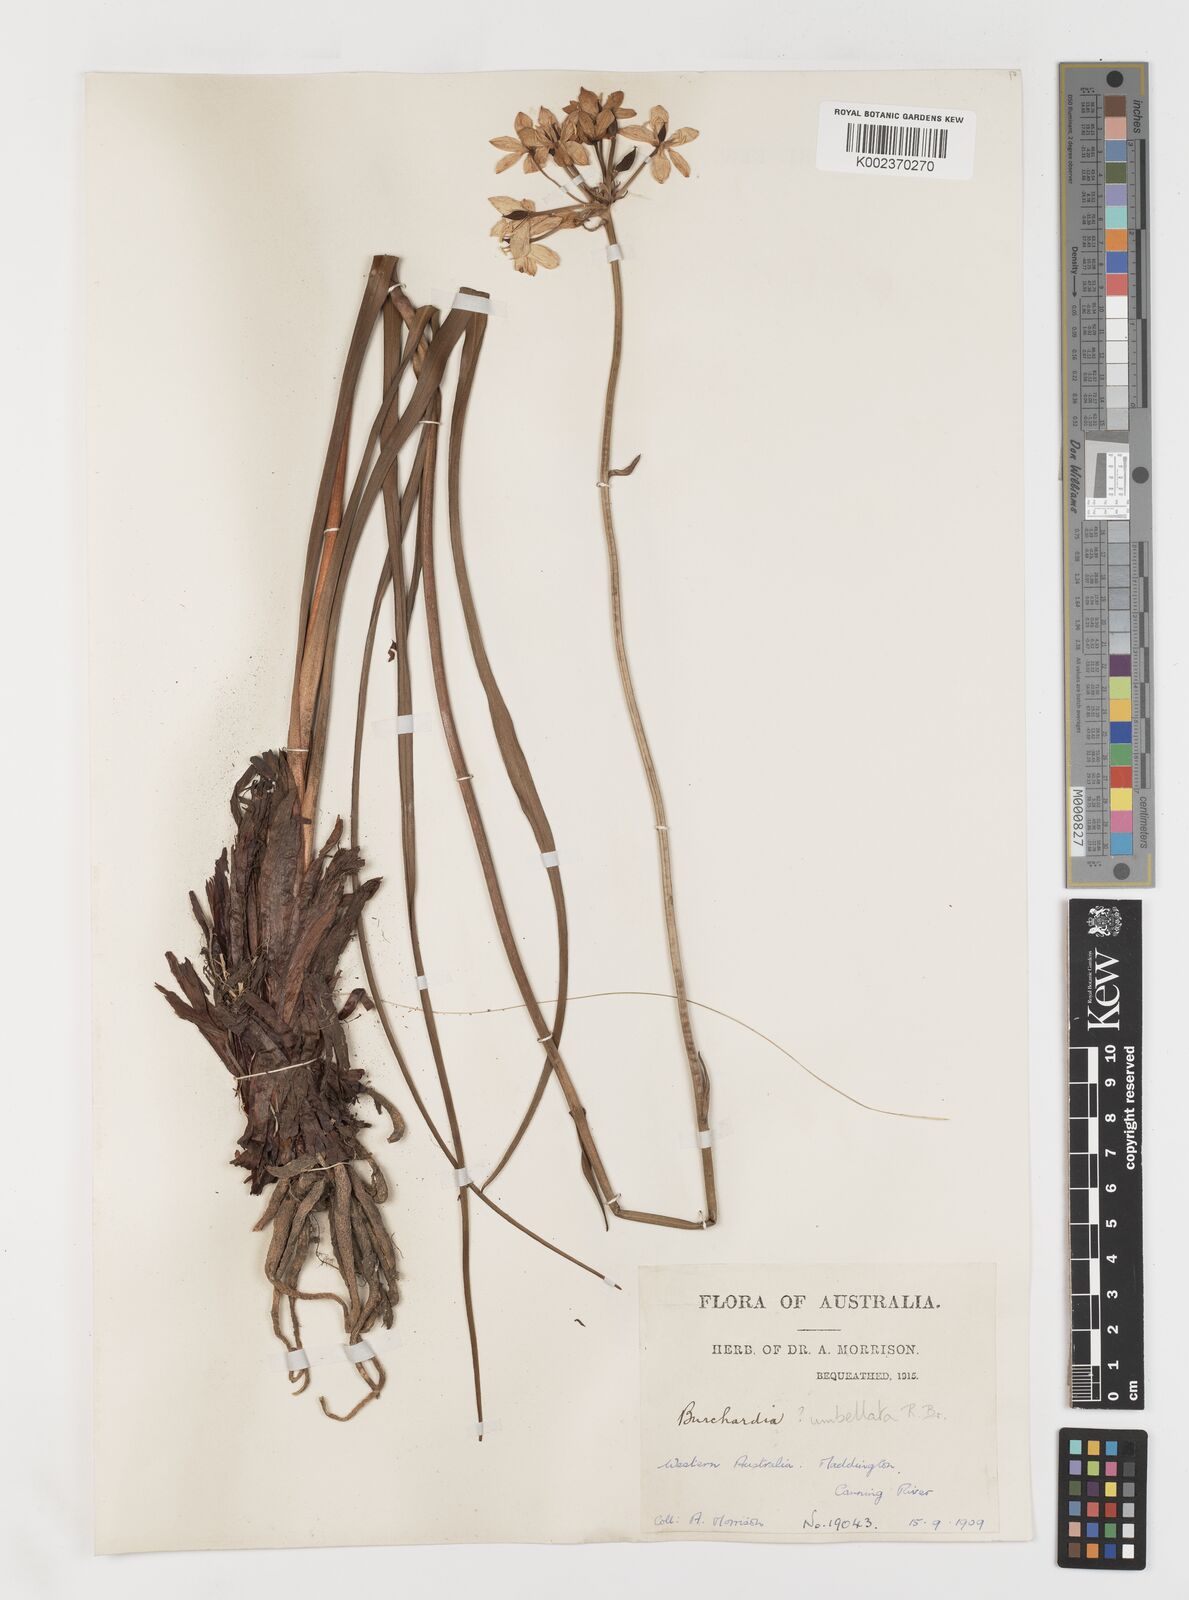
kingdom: Plantae
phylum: Tracheophyta
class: Liliopsida
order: Liliales
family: Colchicaceae
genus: Burchardia
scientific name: Burchardia umbellata
